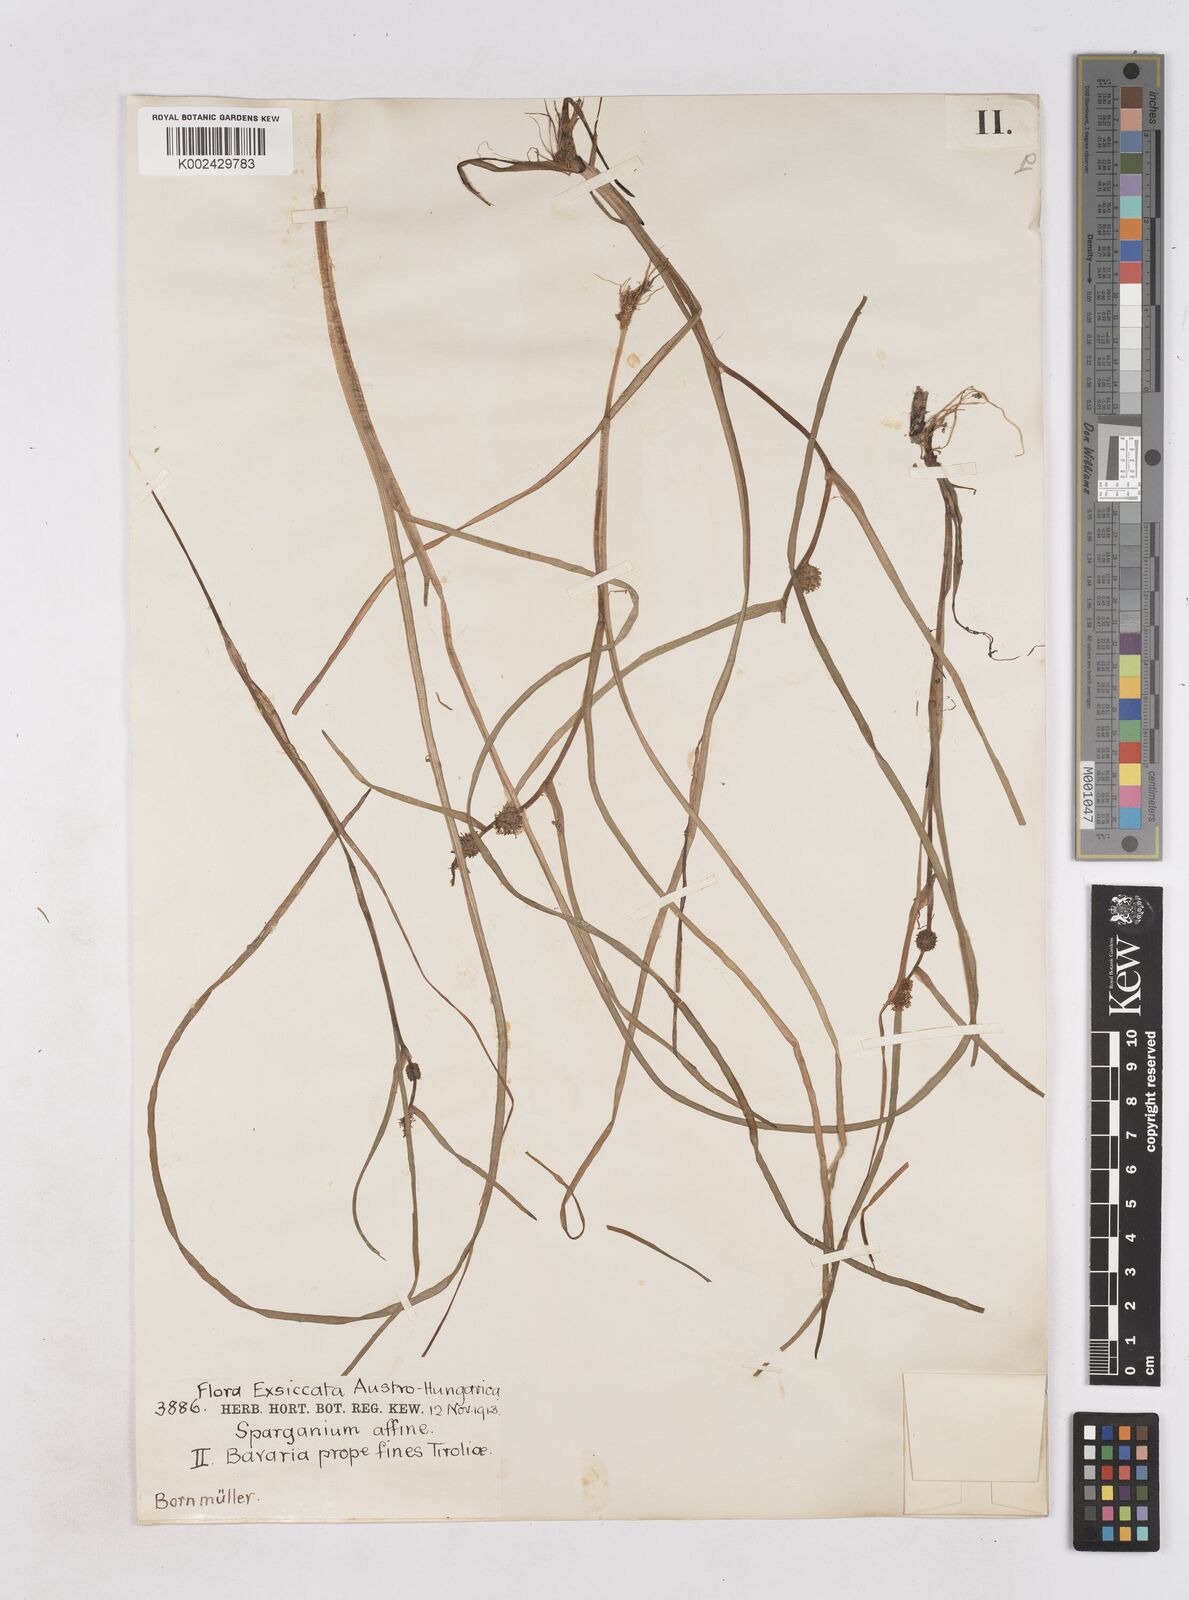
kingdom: Plantae
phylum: Tracheophyta
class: Liliopsida
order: Poales
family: Typhaceae
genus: Sparganium
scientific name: Sparganium angustifolium
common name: Floating bur-reed
